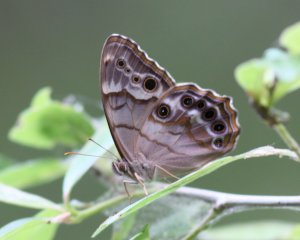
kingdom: Animalia
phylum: Arthropoda
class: Insecta
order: Lepidoptera
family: Nymphalidae
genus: Enodia
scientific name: Enodia portlandia
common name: Southern Pearly Eye
